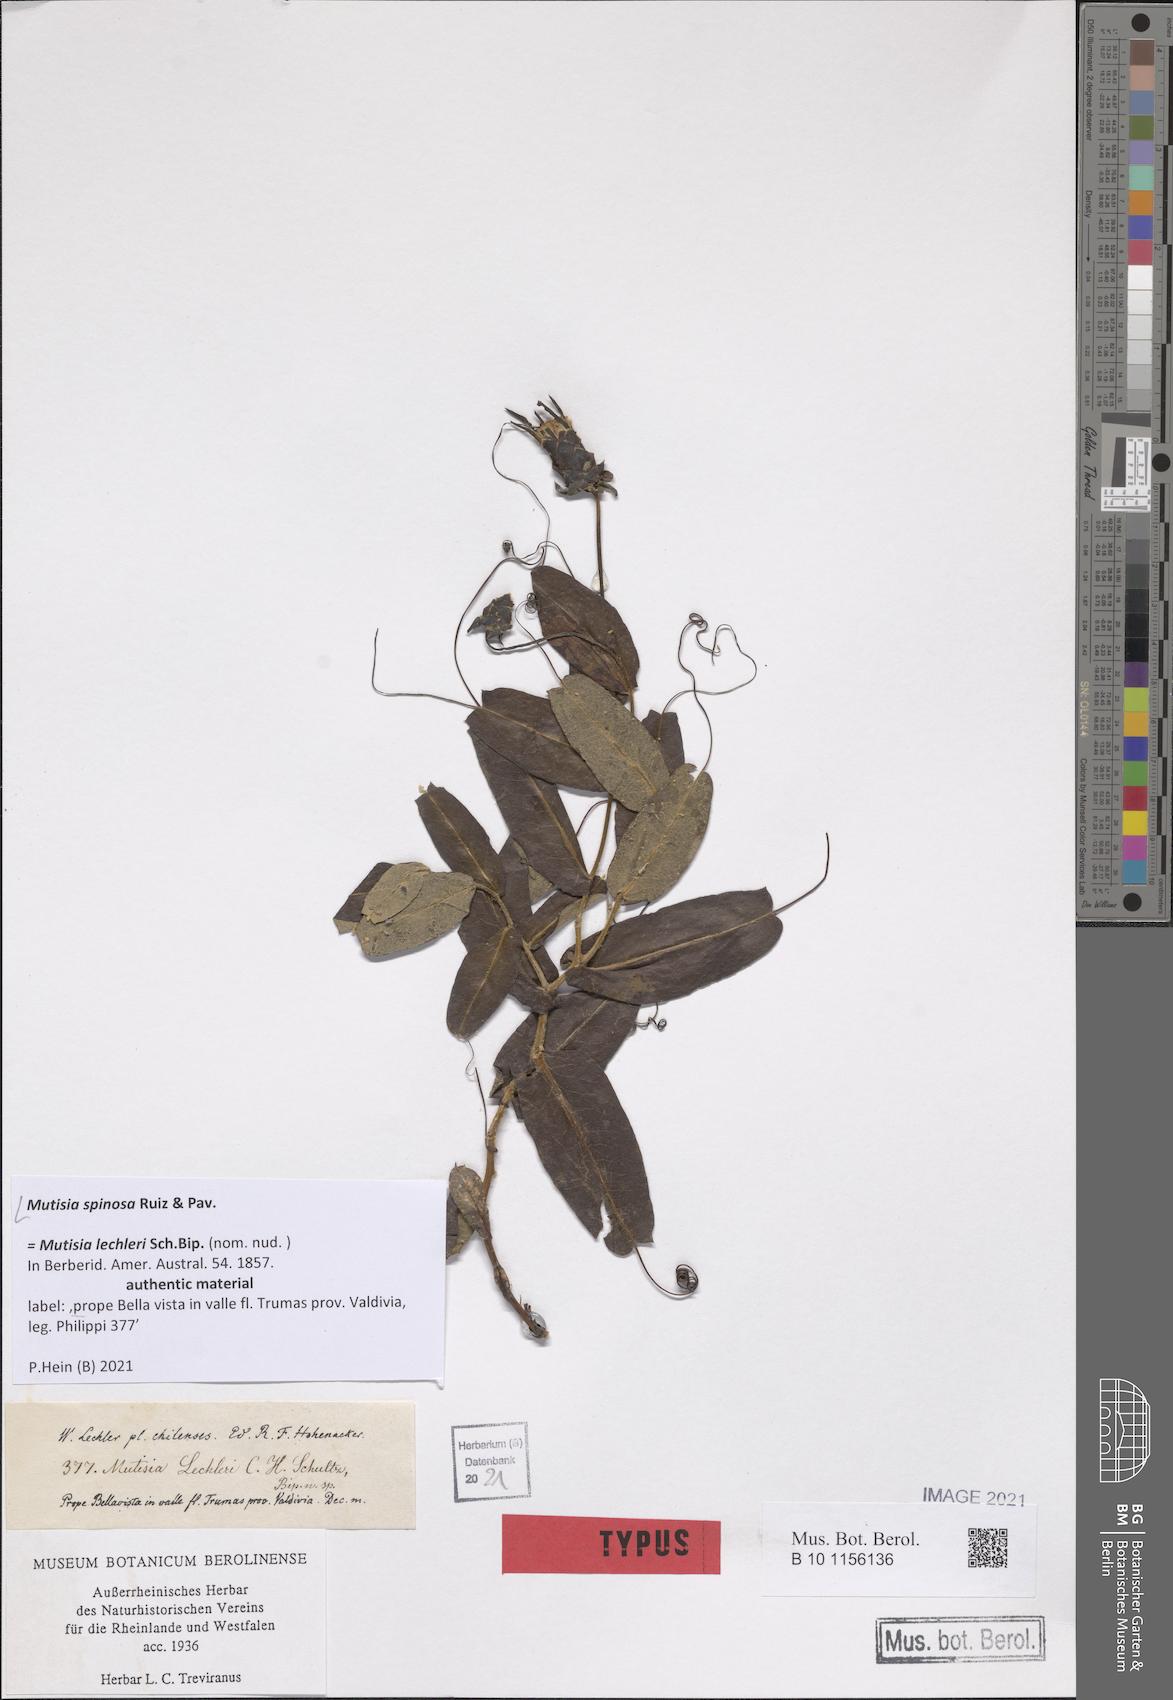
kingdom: Plantae
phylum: Tracheophyta
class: Magnoliopsida
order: Asterales
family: Asteraceae
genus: Mutisia
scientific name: Mutisia spinosa
